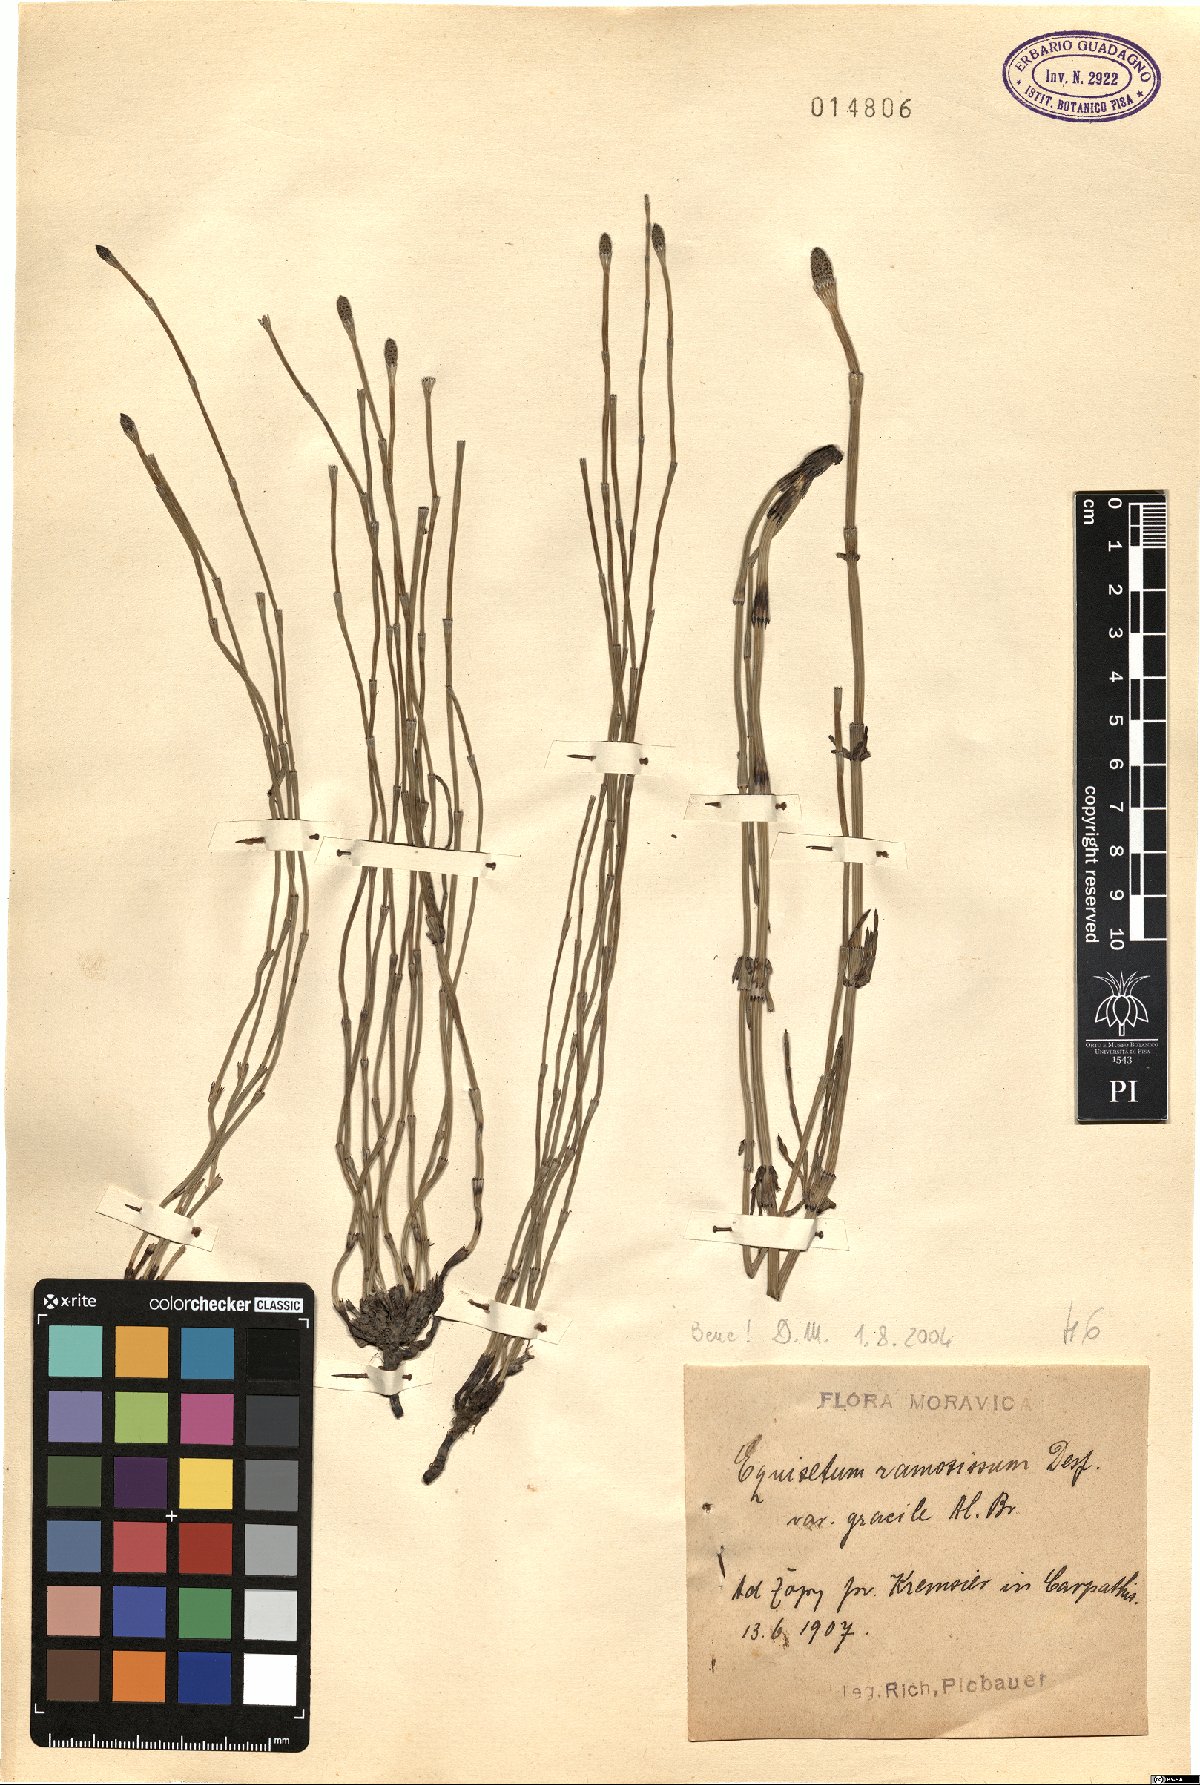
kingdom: Plantae
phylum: Tracheophyta
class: Polypodiopsida
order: Equisetales
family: Equisetaceae
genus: Equisetum
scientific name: Equisetum ramosissimum
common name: Branched horsetail
